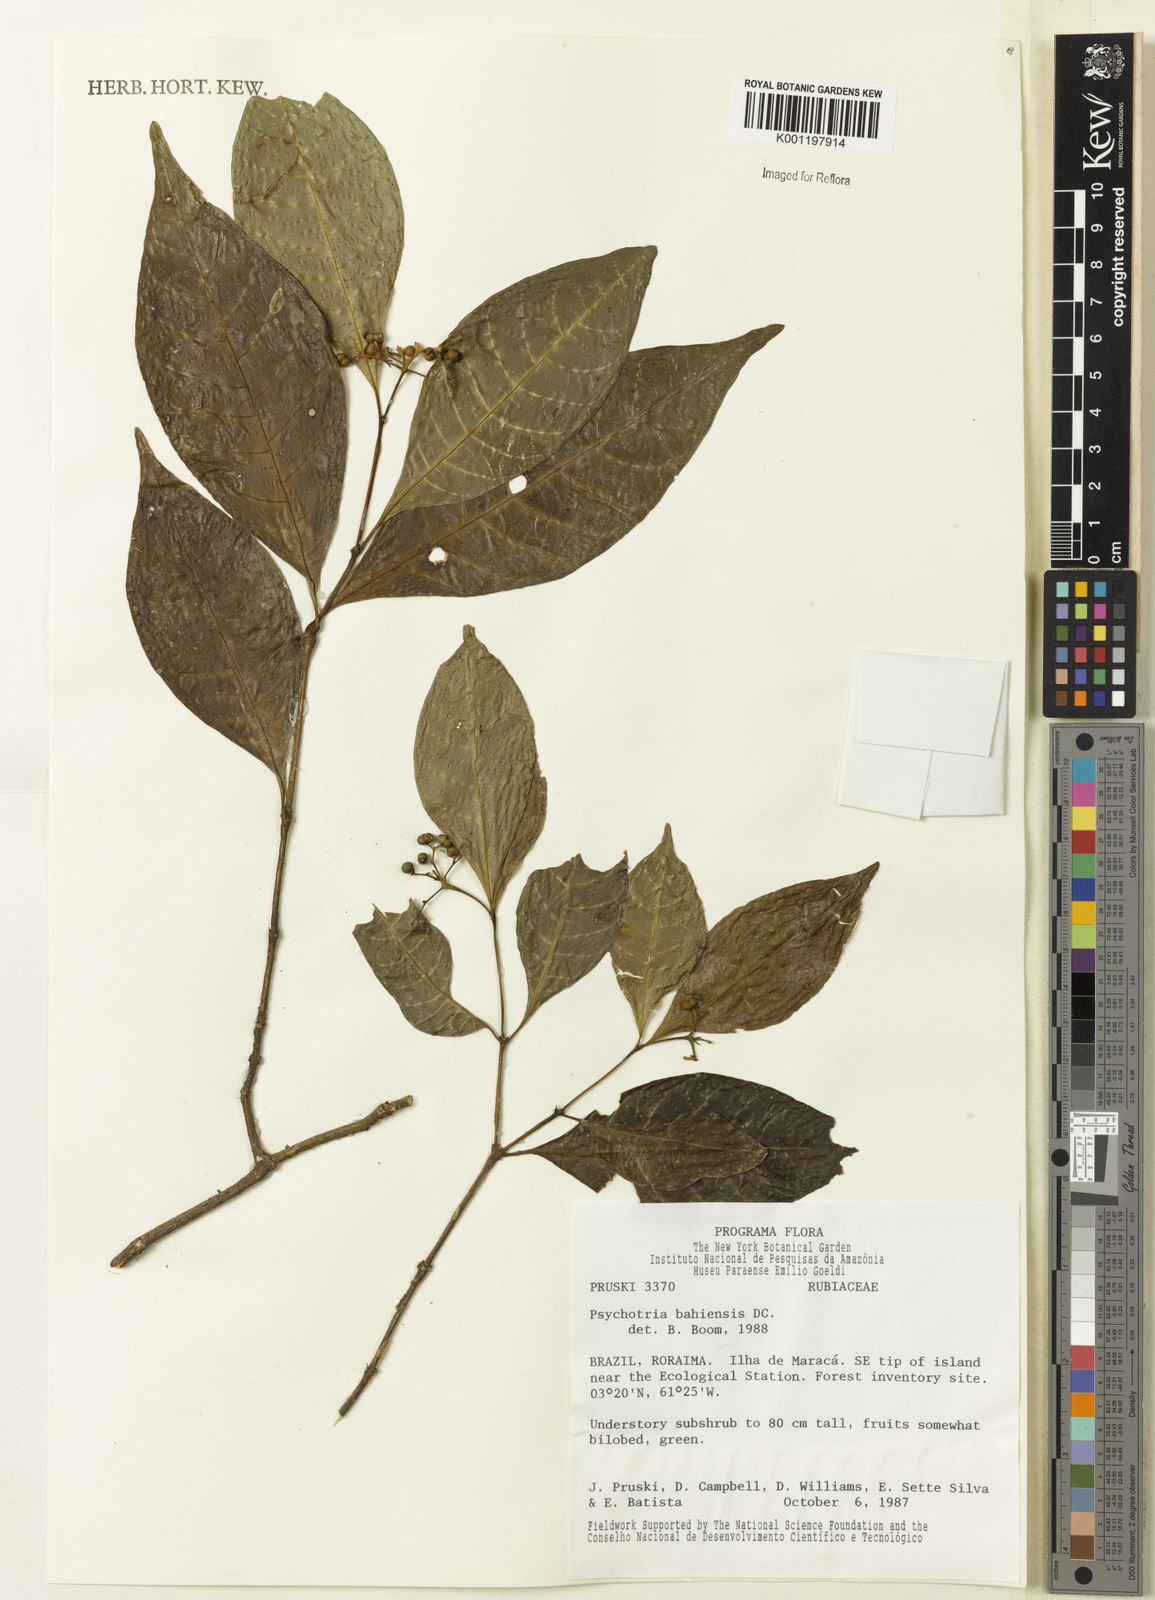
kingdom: Plantae
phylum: Tracheophyta
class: Magnoliopsida
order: Gentianales
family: Rubiaceae
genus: Psychotria
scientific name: Psychotria bahiensis
